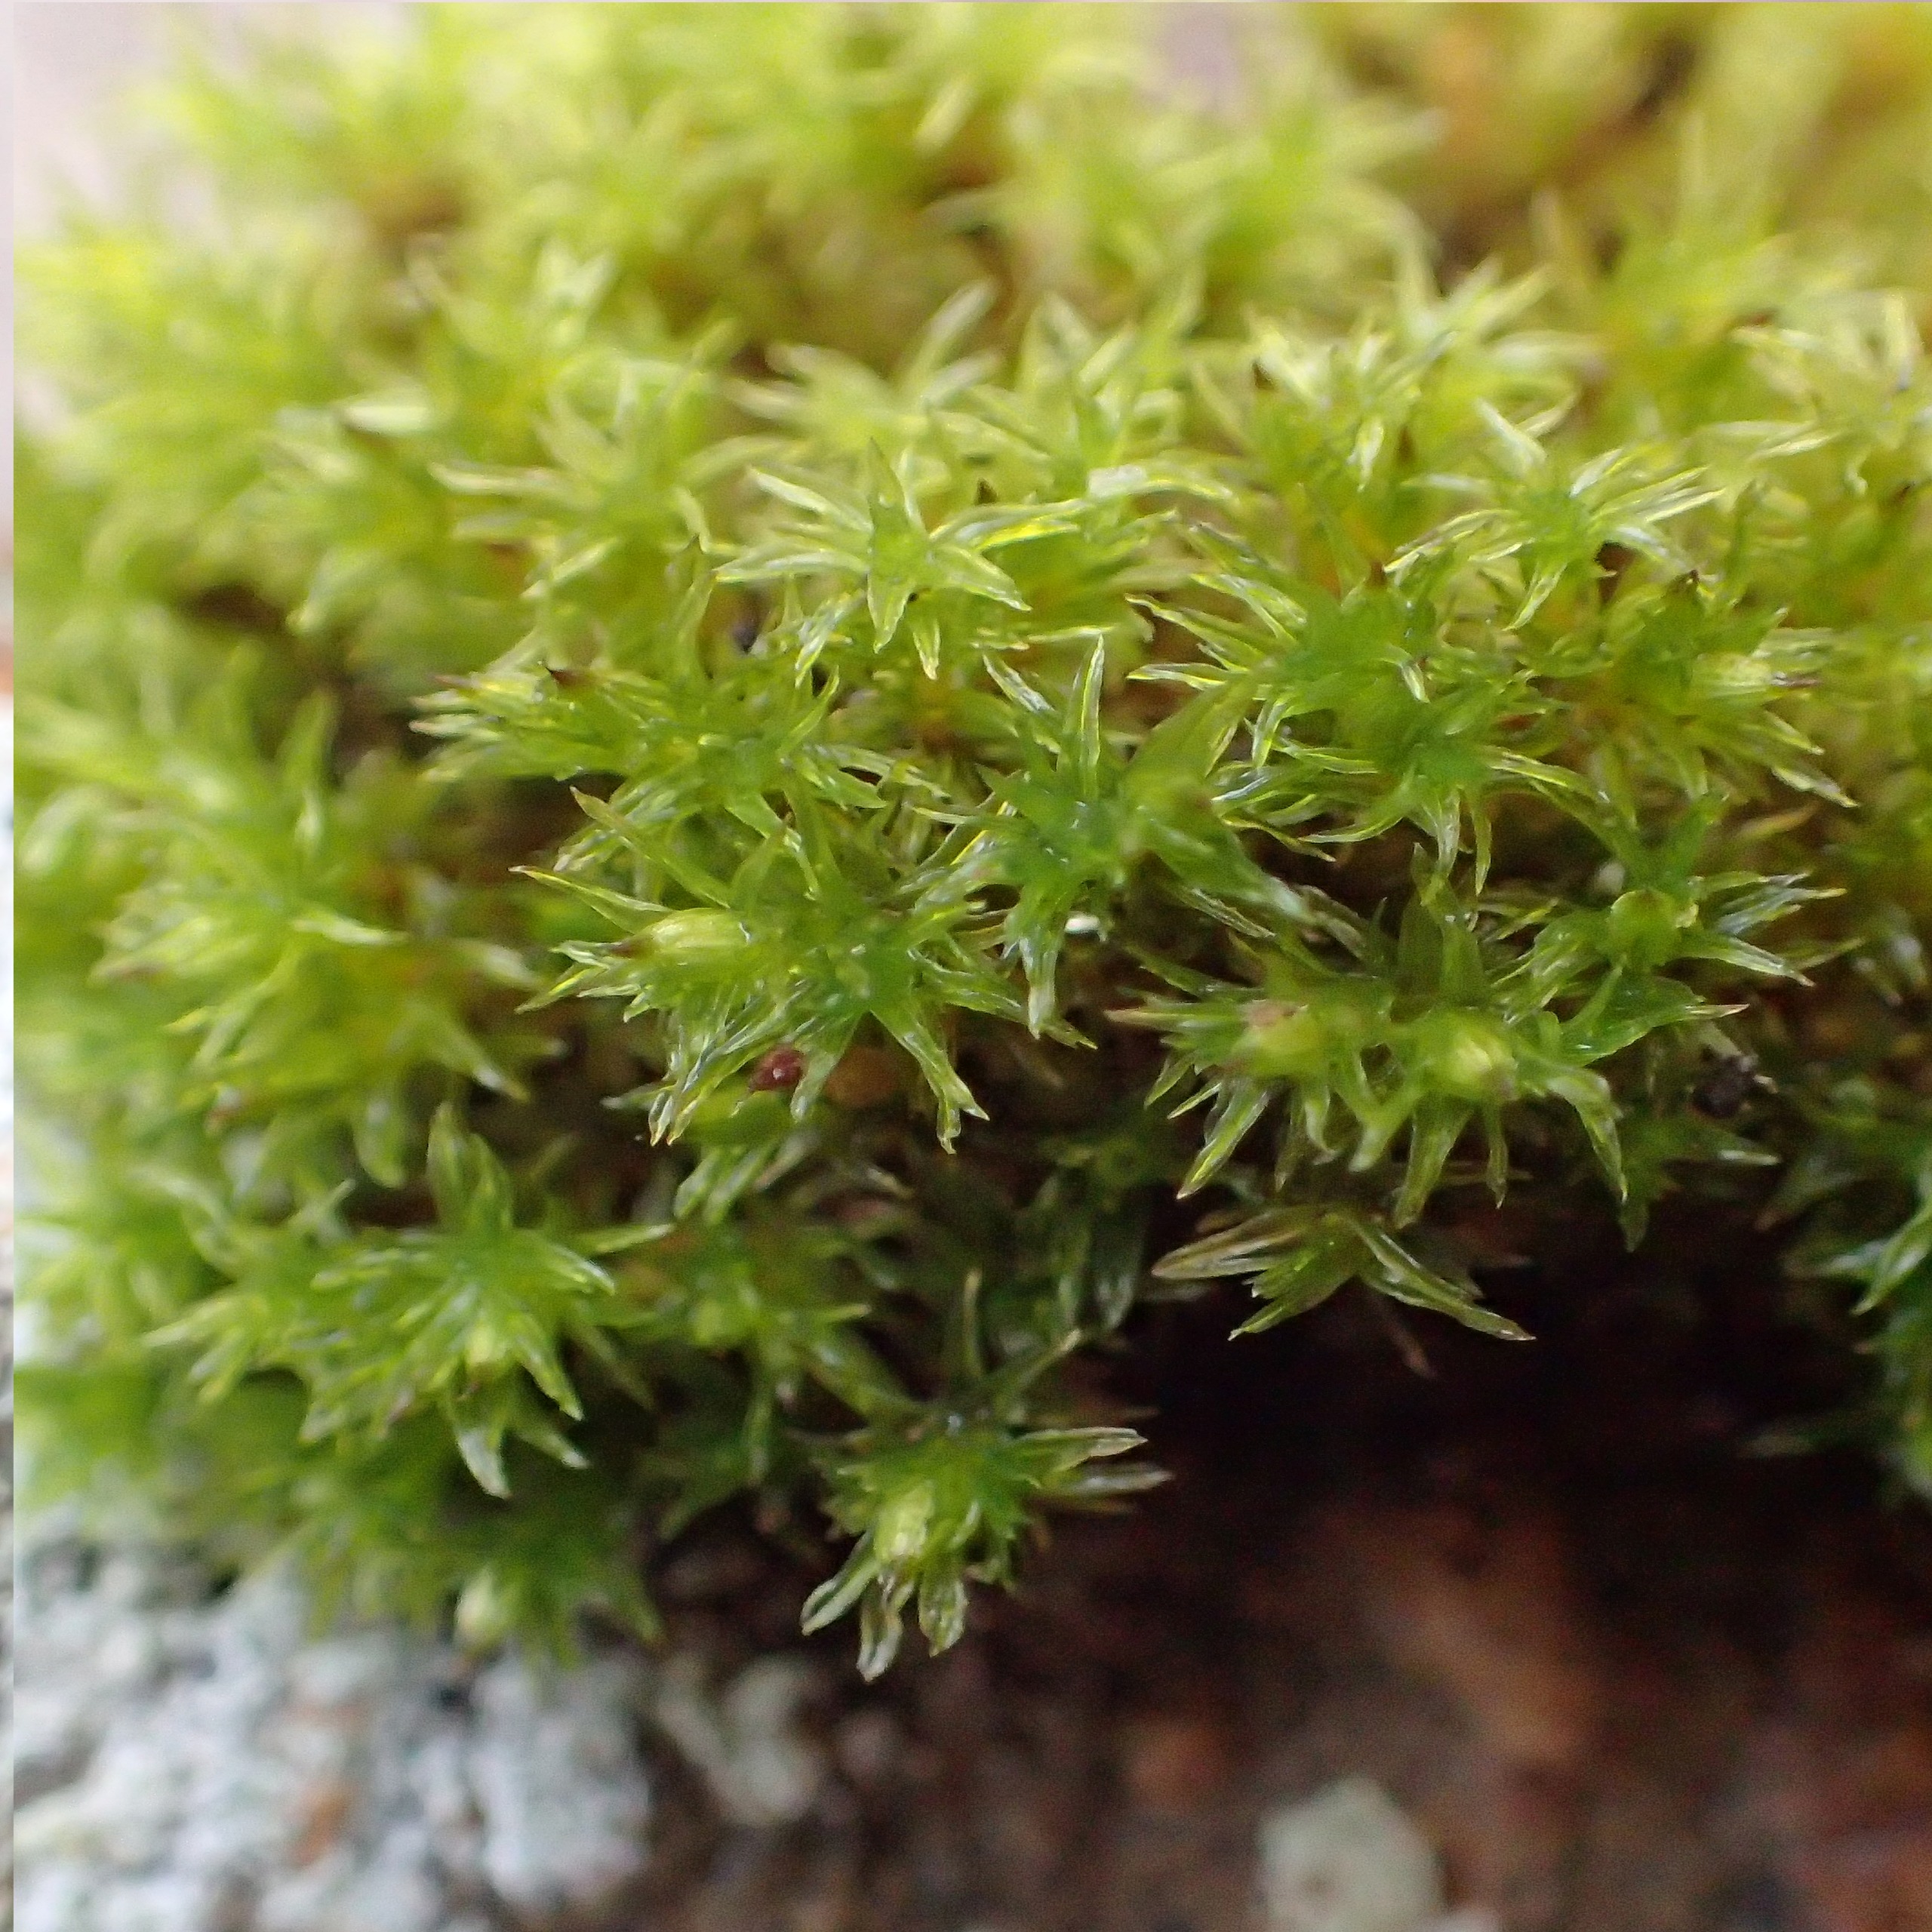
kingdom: Plantae
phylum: Bryophyta
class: Bryopsida
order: Orthotrichales
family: Orthotrichaceae
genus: Orthotrichum
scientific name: Orthotrichum
